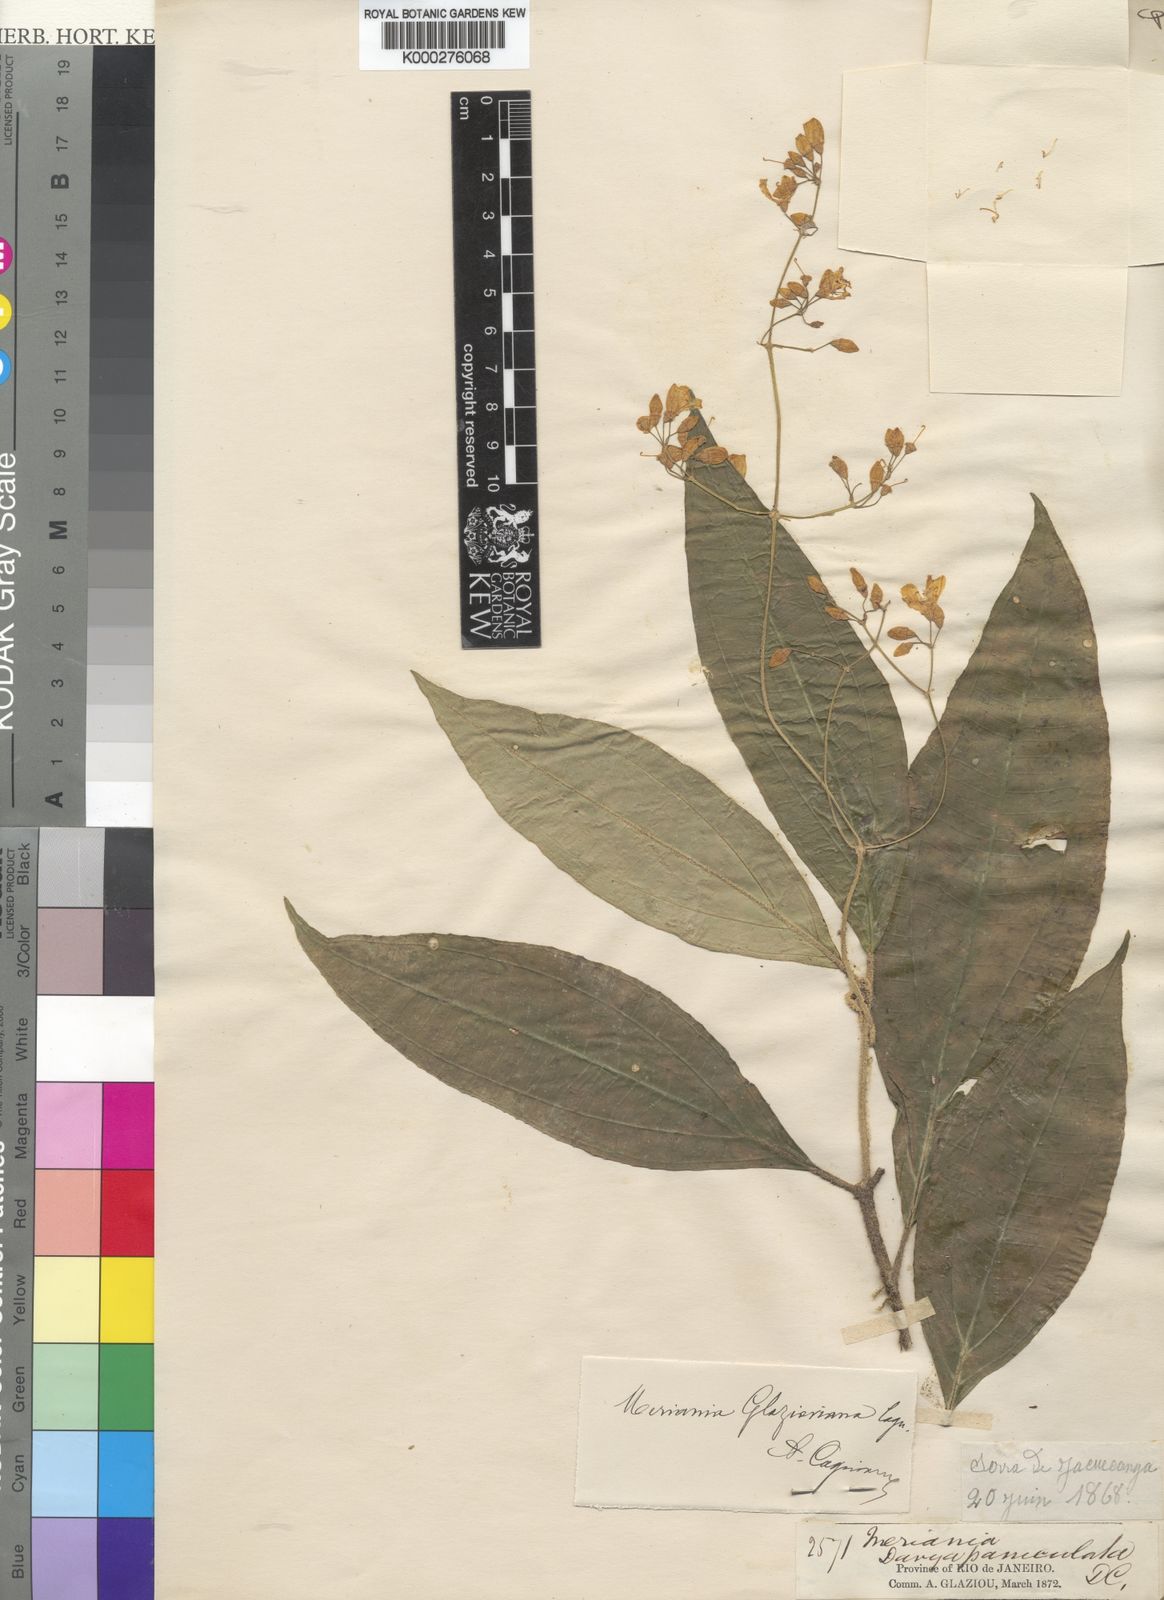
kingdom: Plantae
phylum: Tracheophyta
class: Magnoliopsida
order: Myrtales
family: Melastomataceae
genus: Meriania
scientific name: Meriania glazioviana
